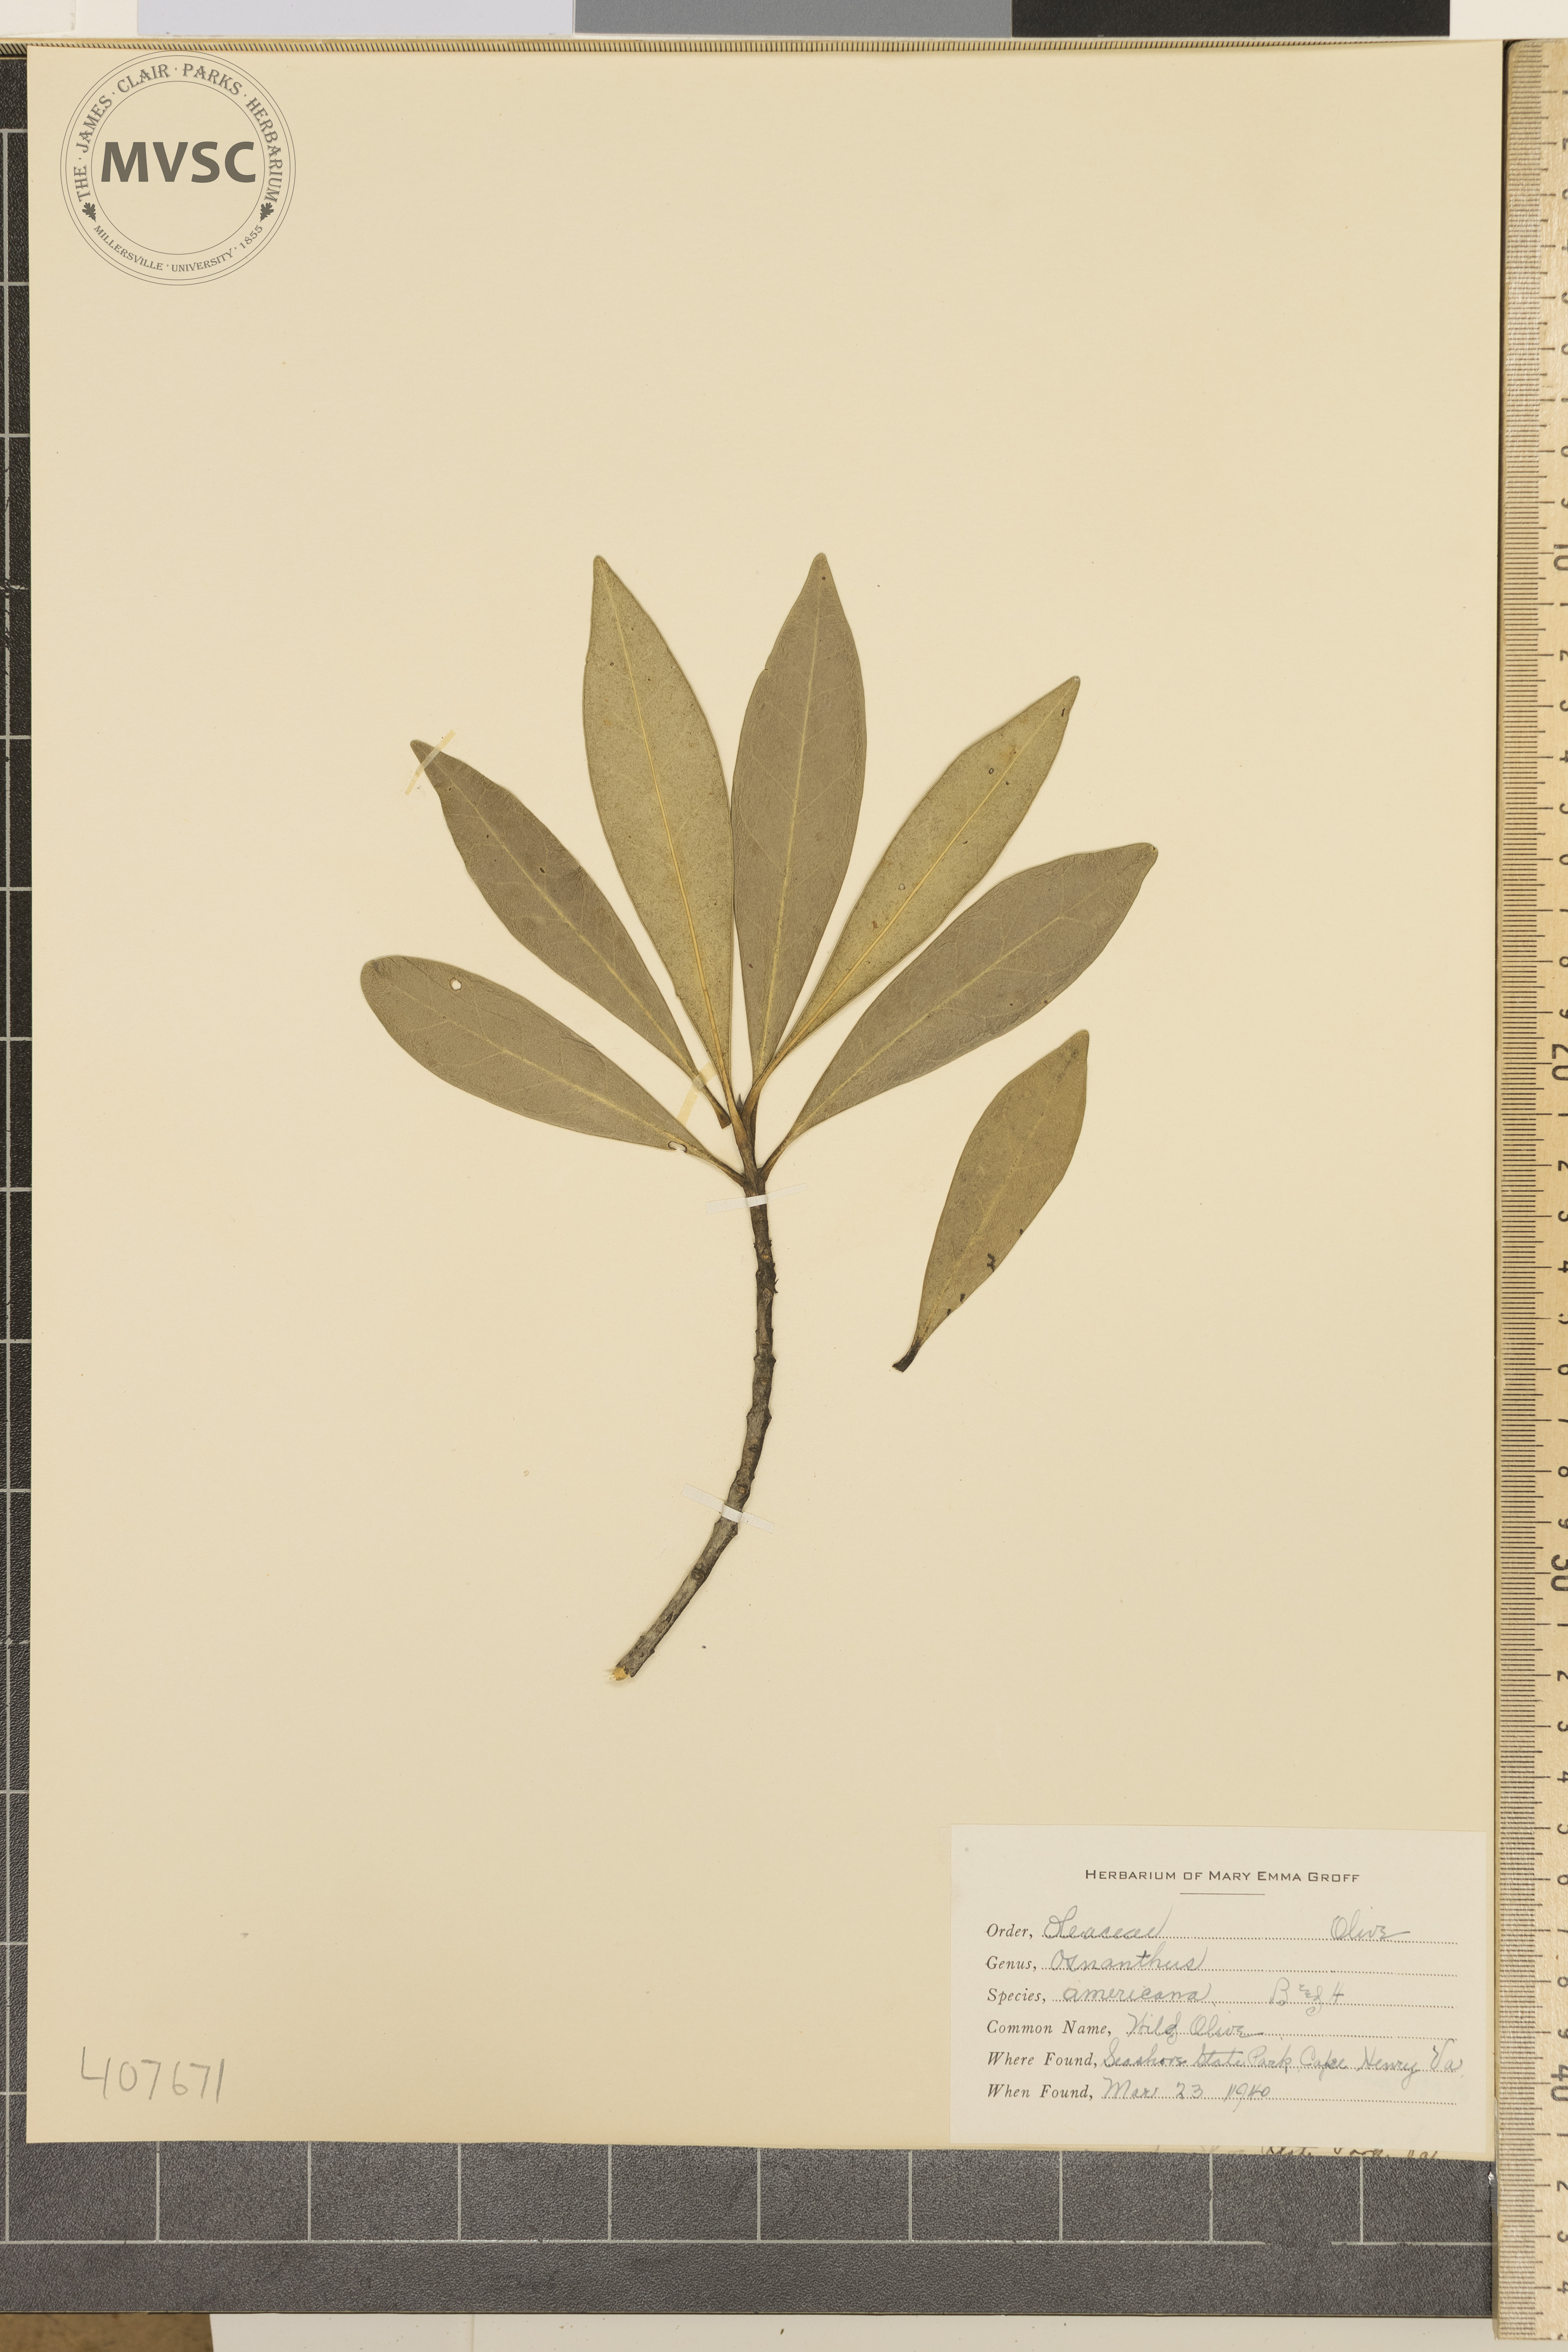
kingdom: Plantae
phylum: Tracheophyta
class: Magnoliopsida
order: Lamiales
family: Oleaceae
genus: Osmanthus
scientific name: Osmanthus americanus
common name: wild olive
